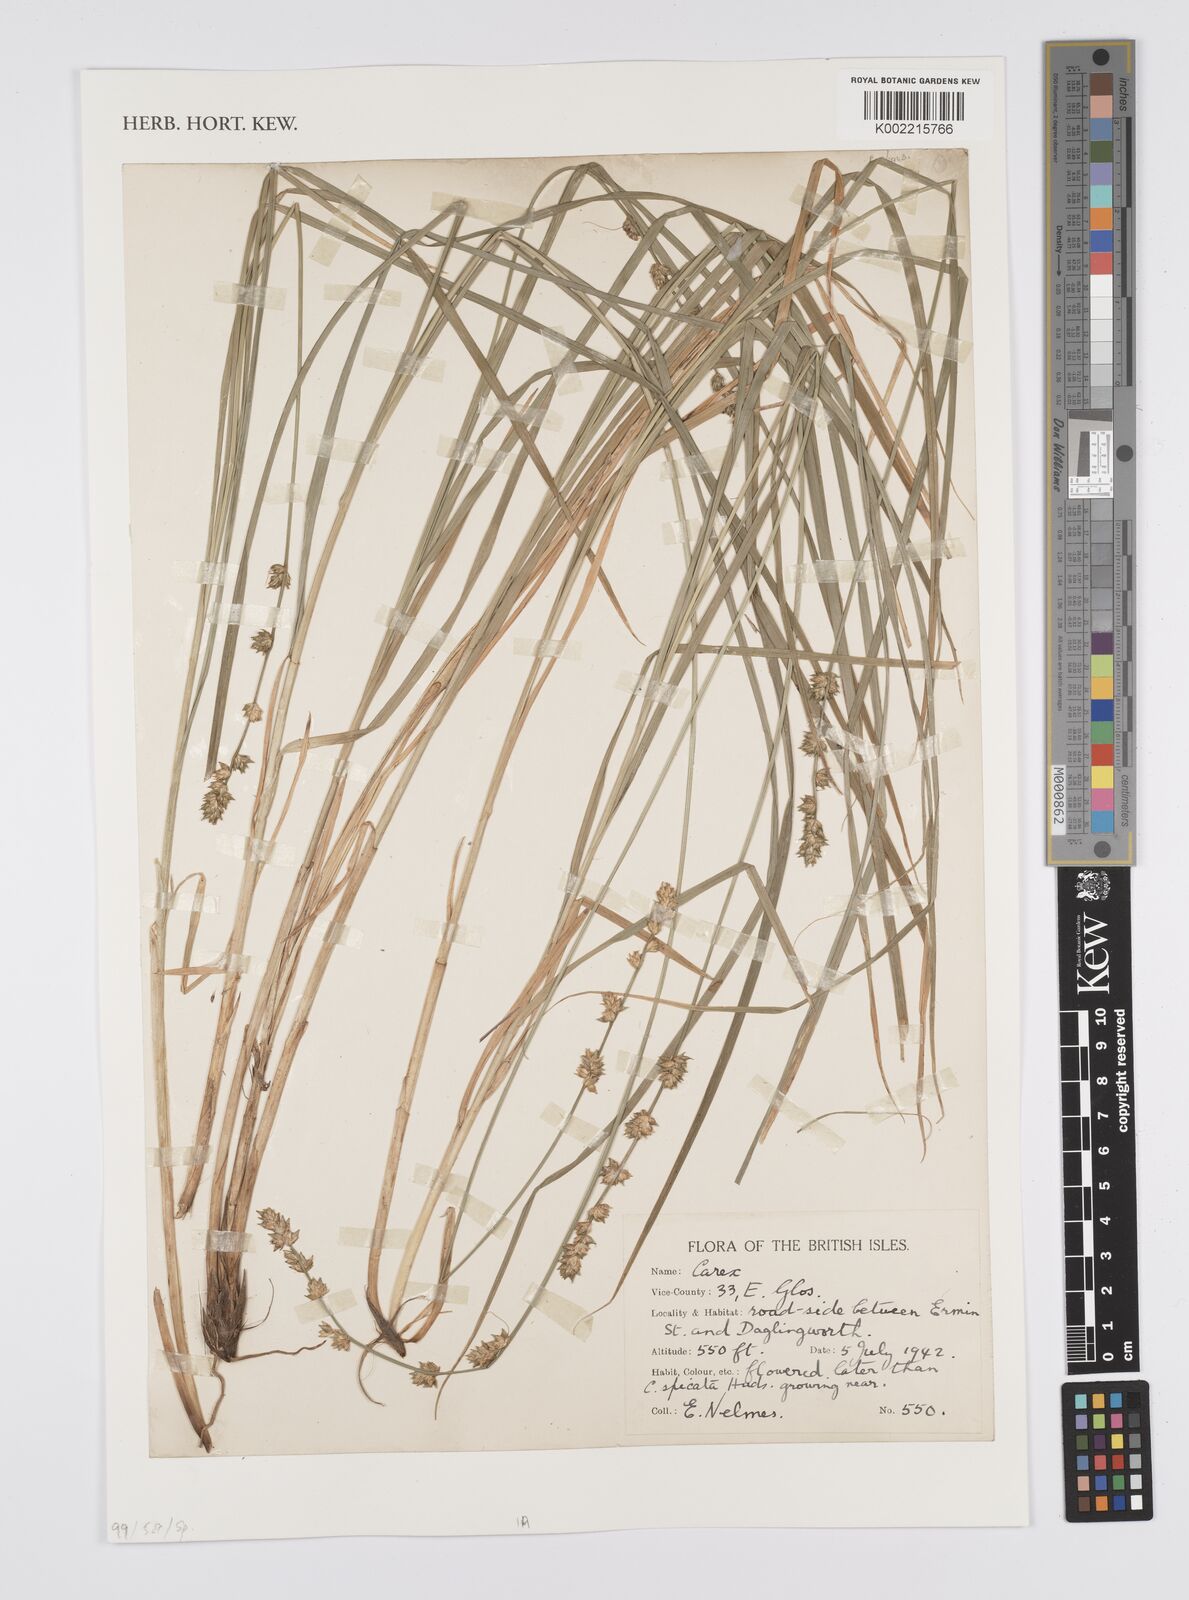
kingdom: Plantae
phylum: Tracheophyta
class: Liliopsida
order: Poales
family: Cyperaceae
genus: Carex
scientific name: Carex
